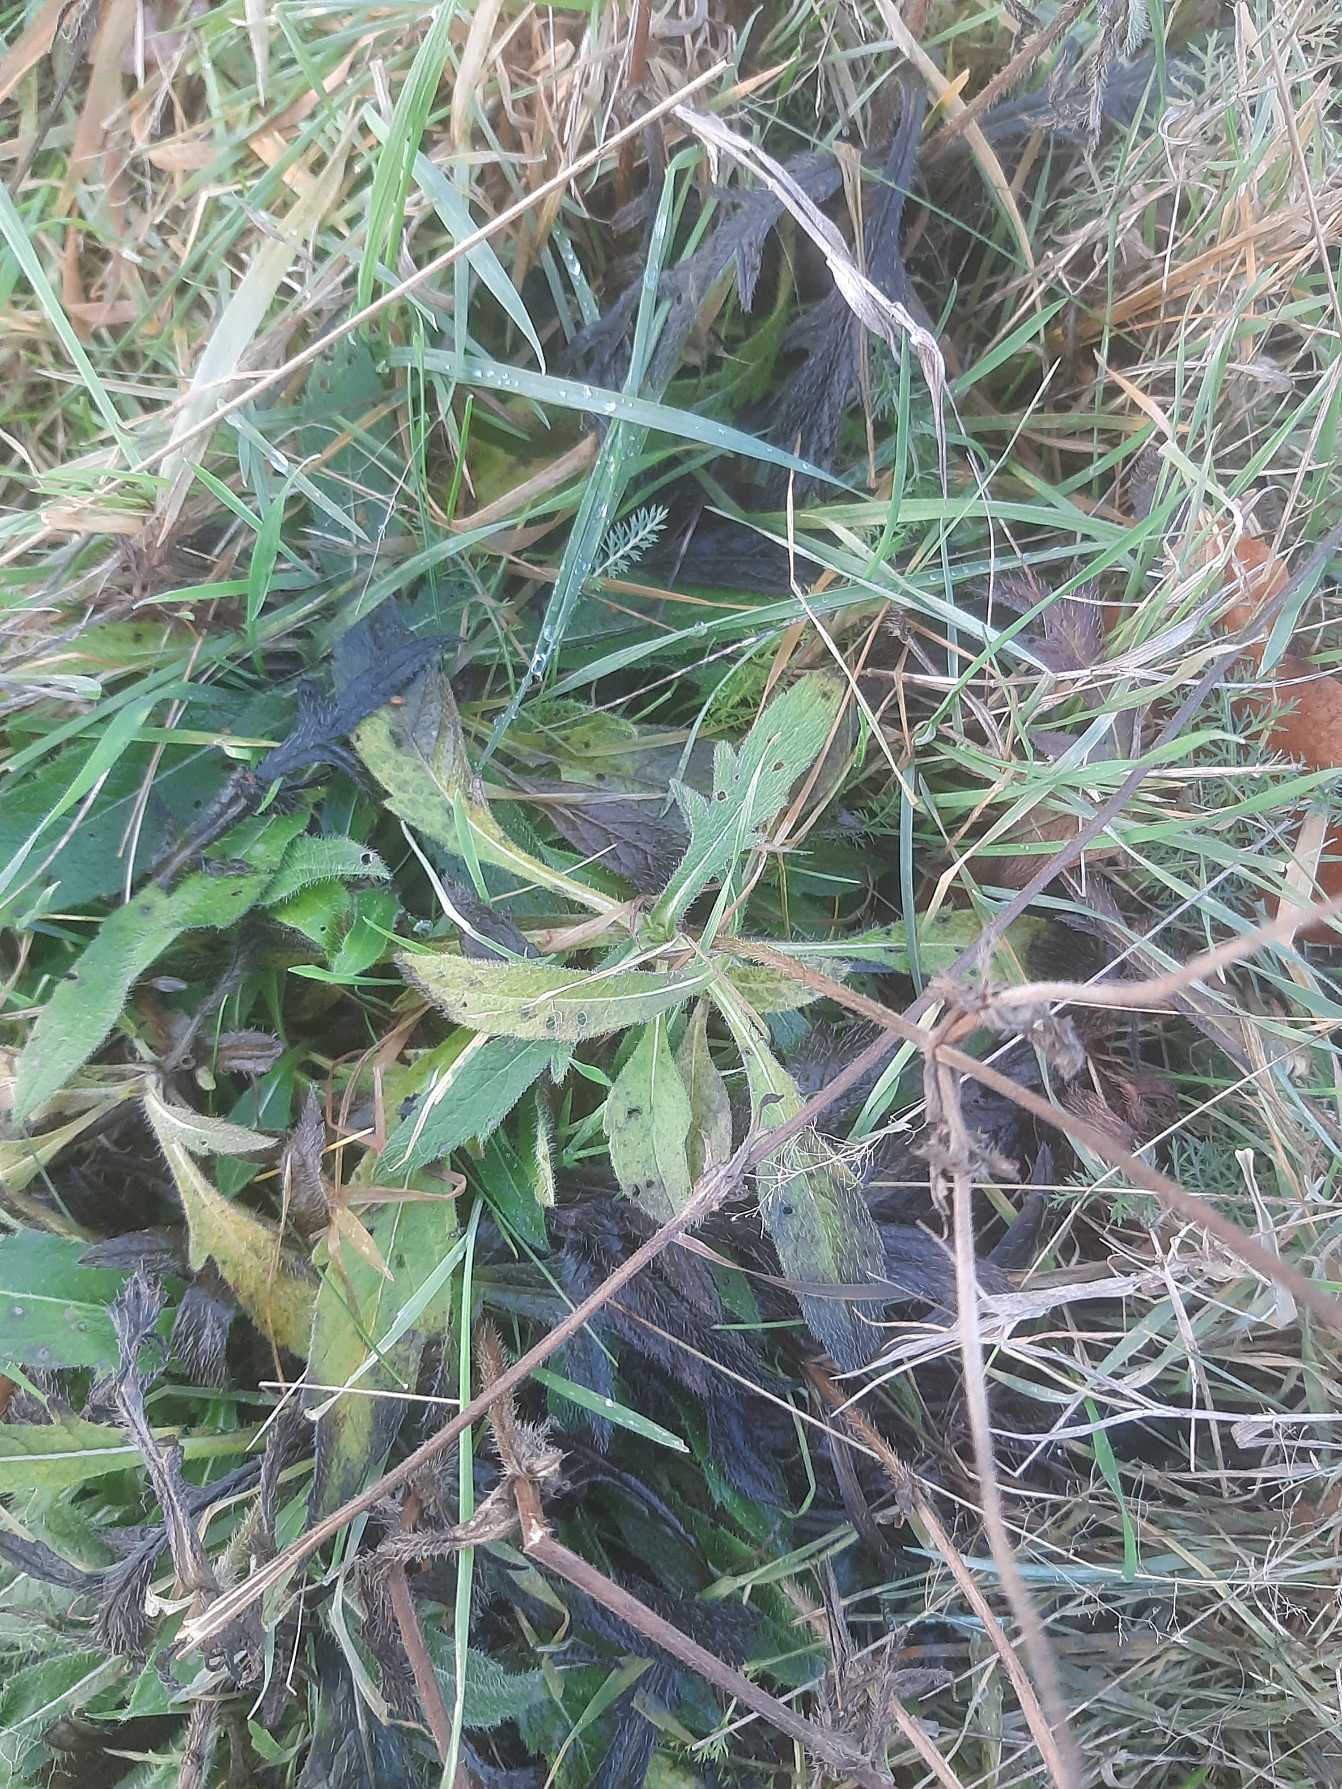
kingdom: Plantae
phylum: Tracheophyta
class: Magnoliopsida
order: Dipsacales
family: Caprifoliaceae
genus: Knautia
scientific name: Knautia arvensis
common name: Blåhat
